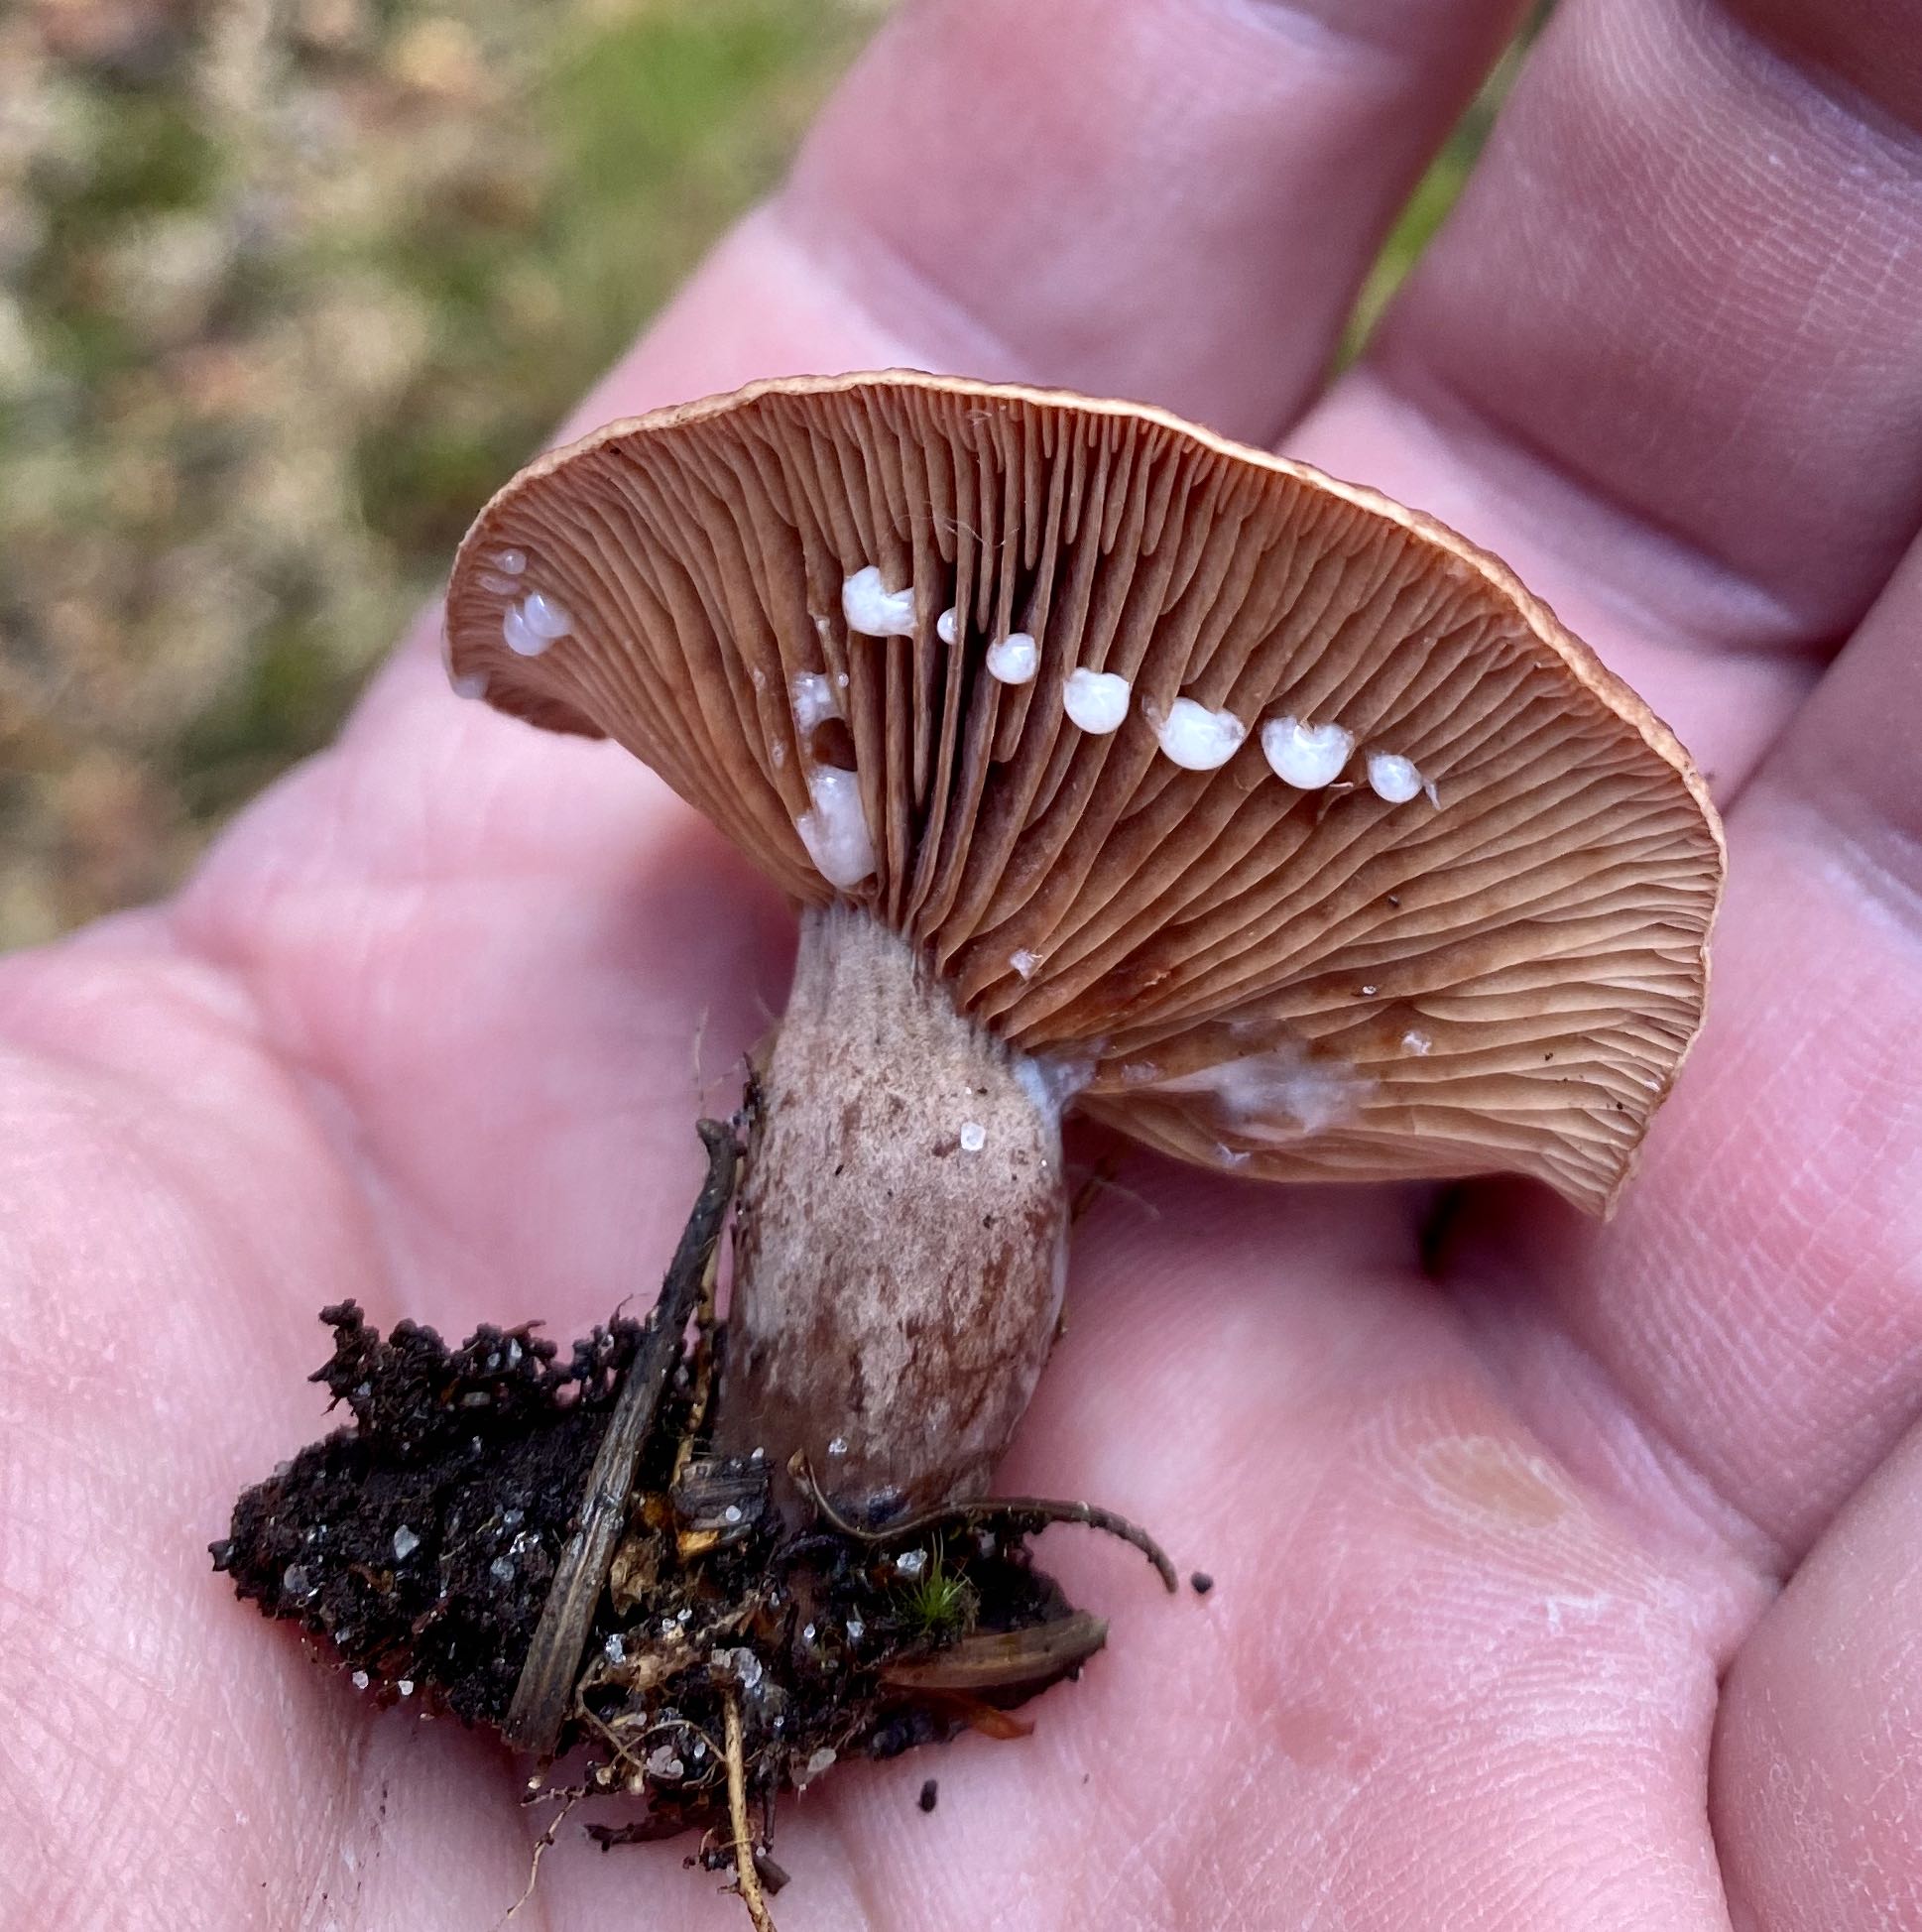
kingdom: Fungi
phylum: Basidiomycota
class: Agaricomycetes
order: Russulales
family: Russulaceae
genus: Lactarius
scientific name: Lactarius camphoratus
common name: kamfer-mælkehat
